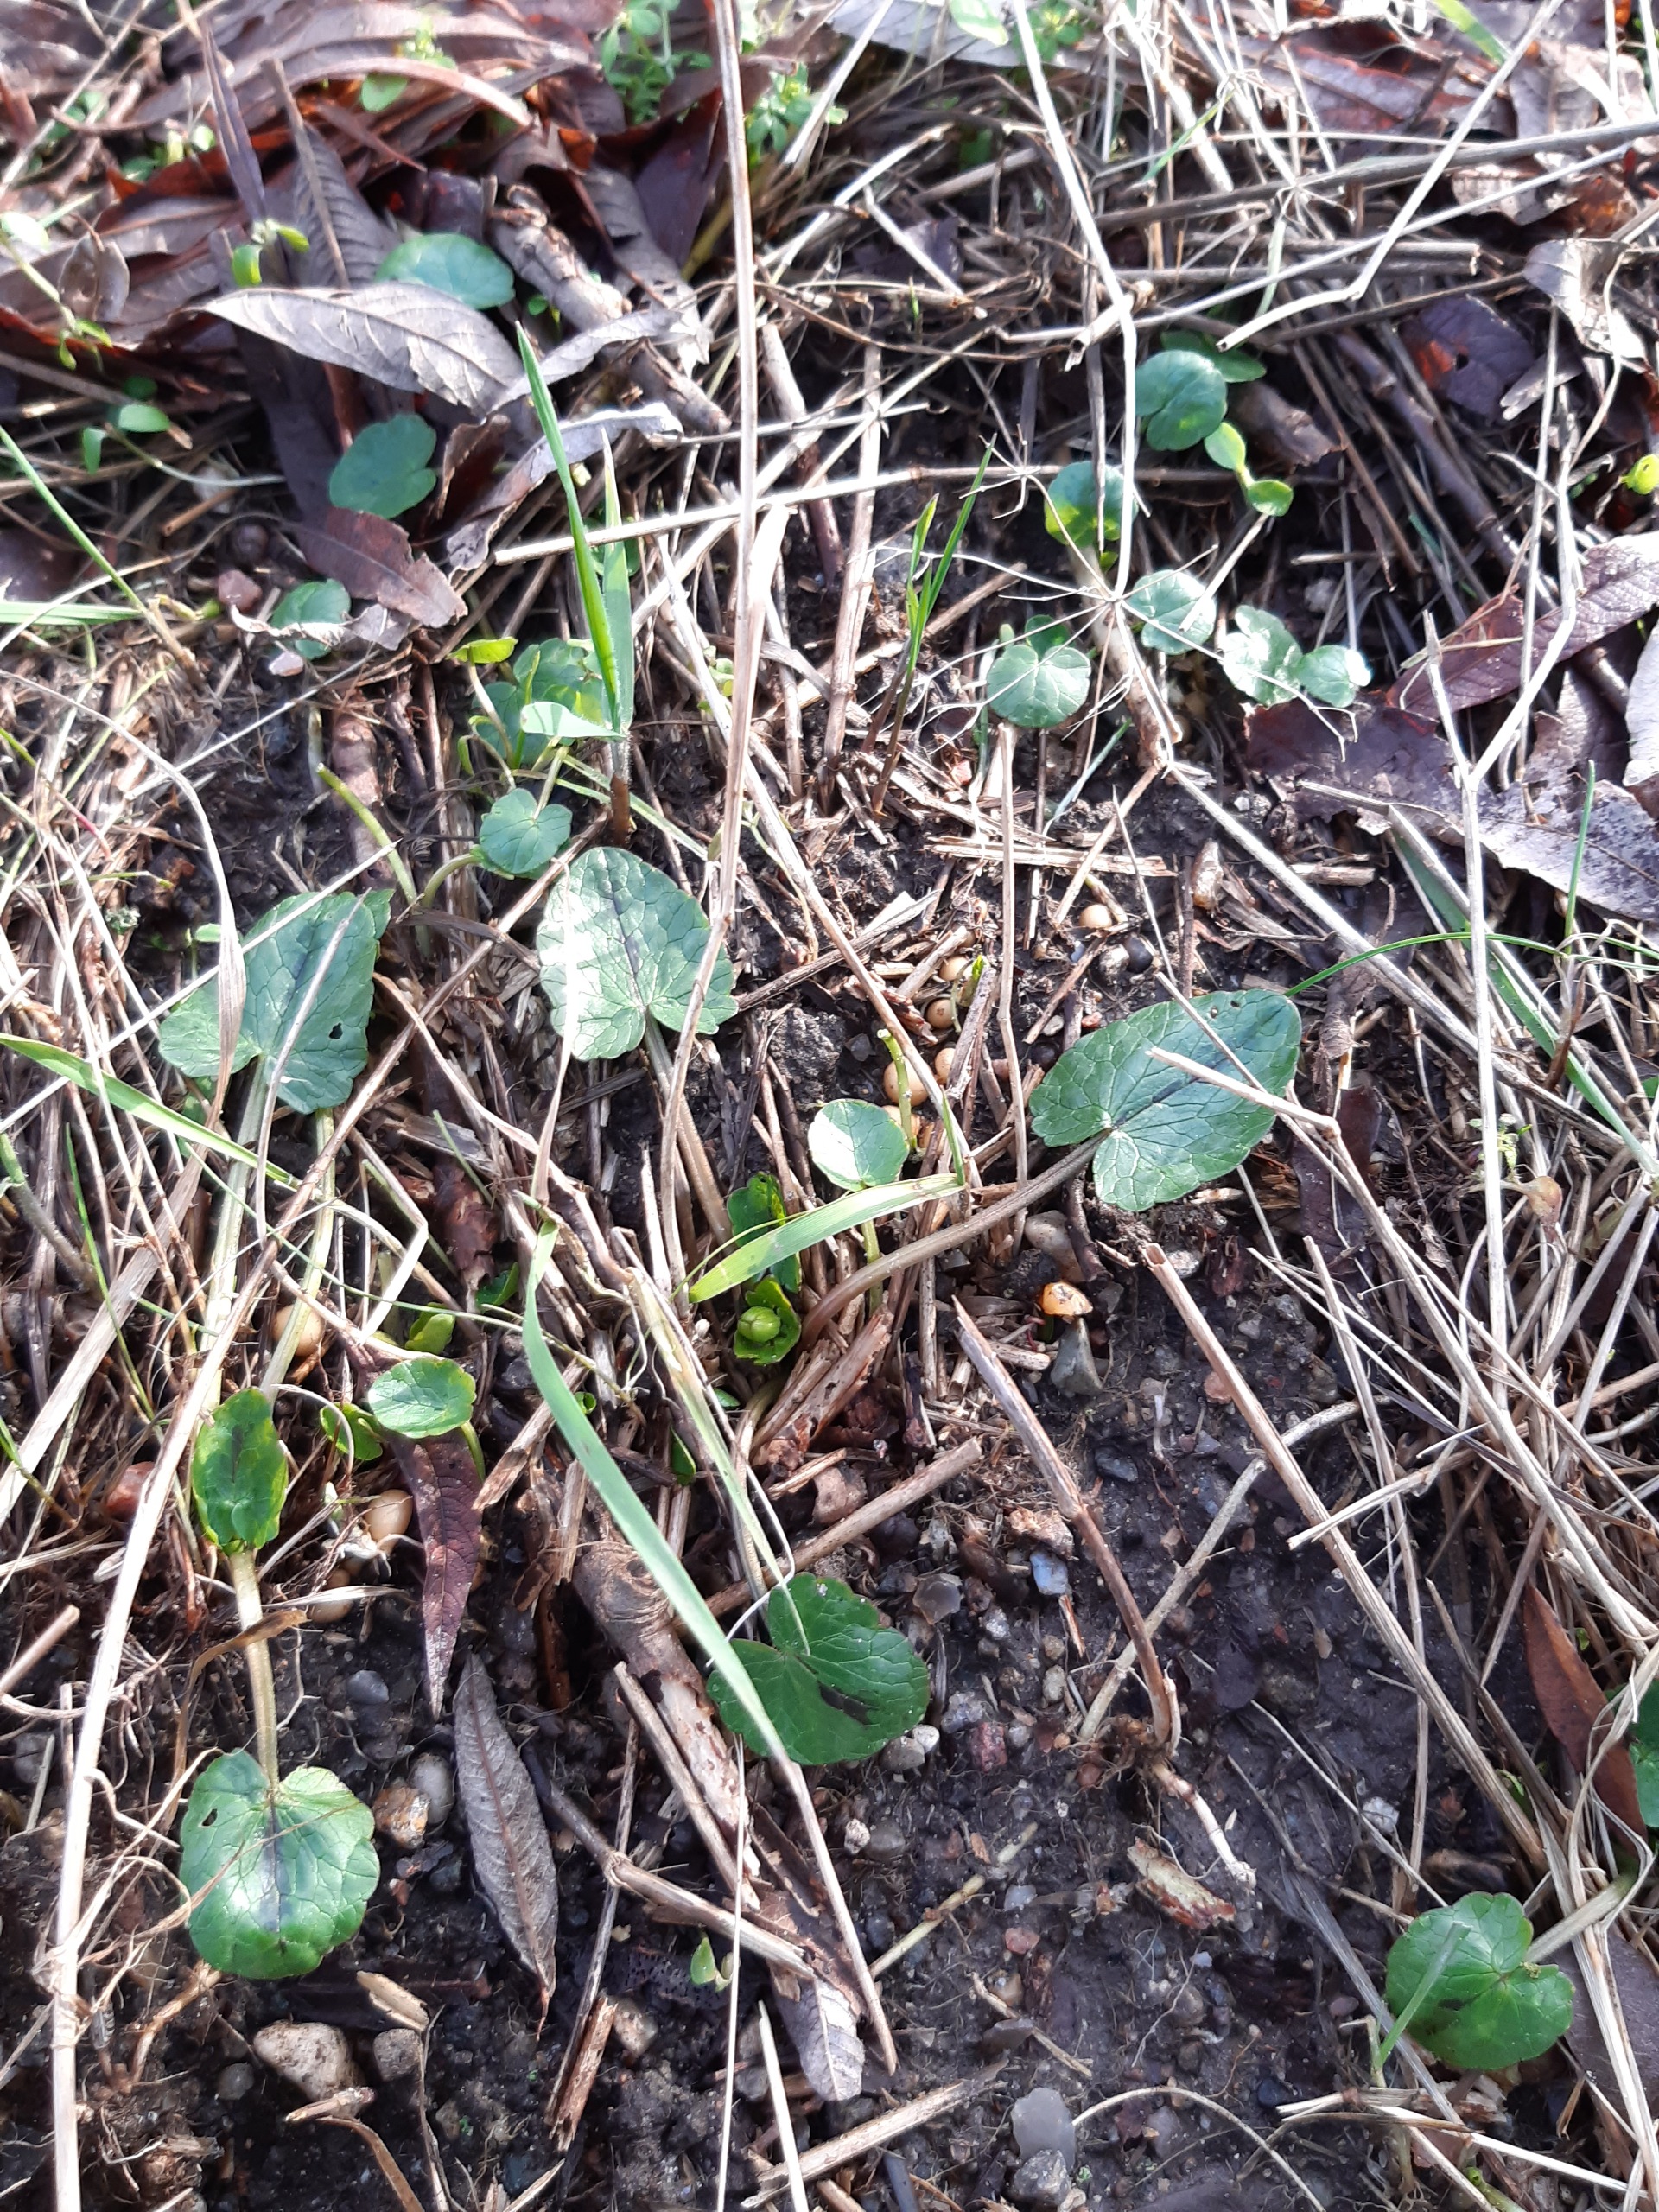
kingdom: Plantae
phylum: Tracheophyta
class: Magnoliopsida
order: Ranunculales
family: Ranunculaceae
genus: Ficaria
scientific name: Ficaria verna
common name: Vorterod
